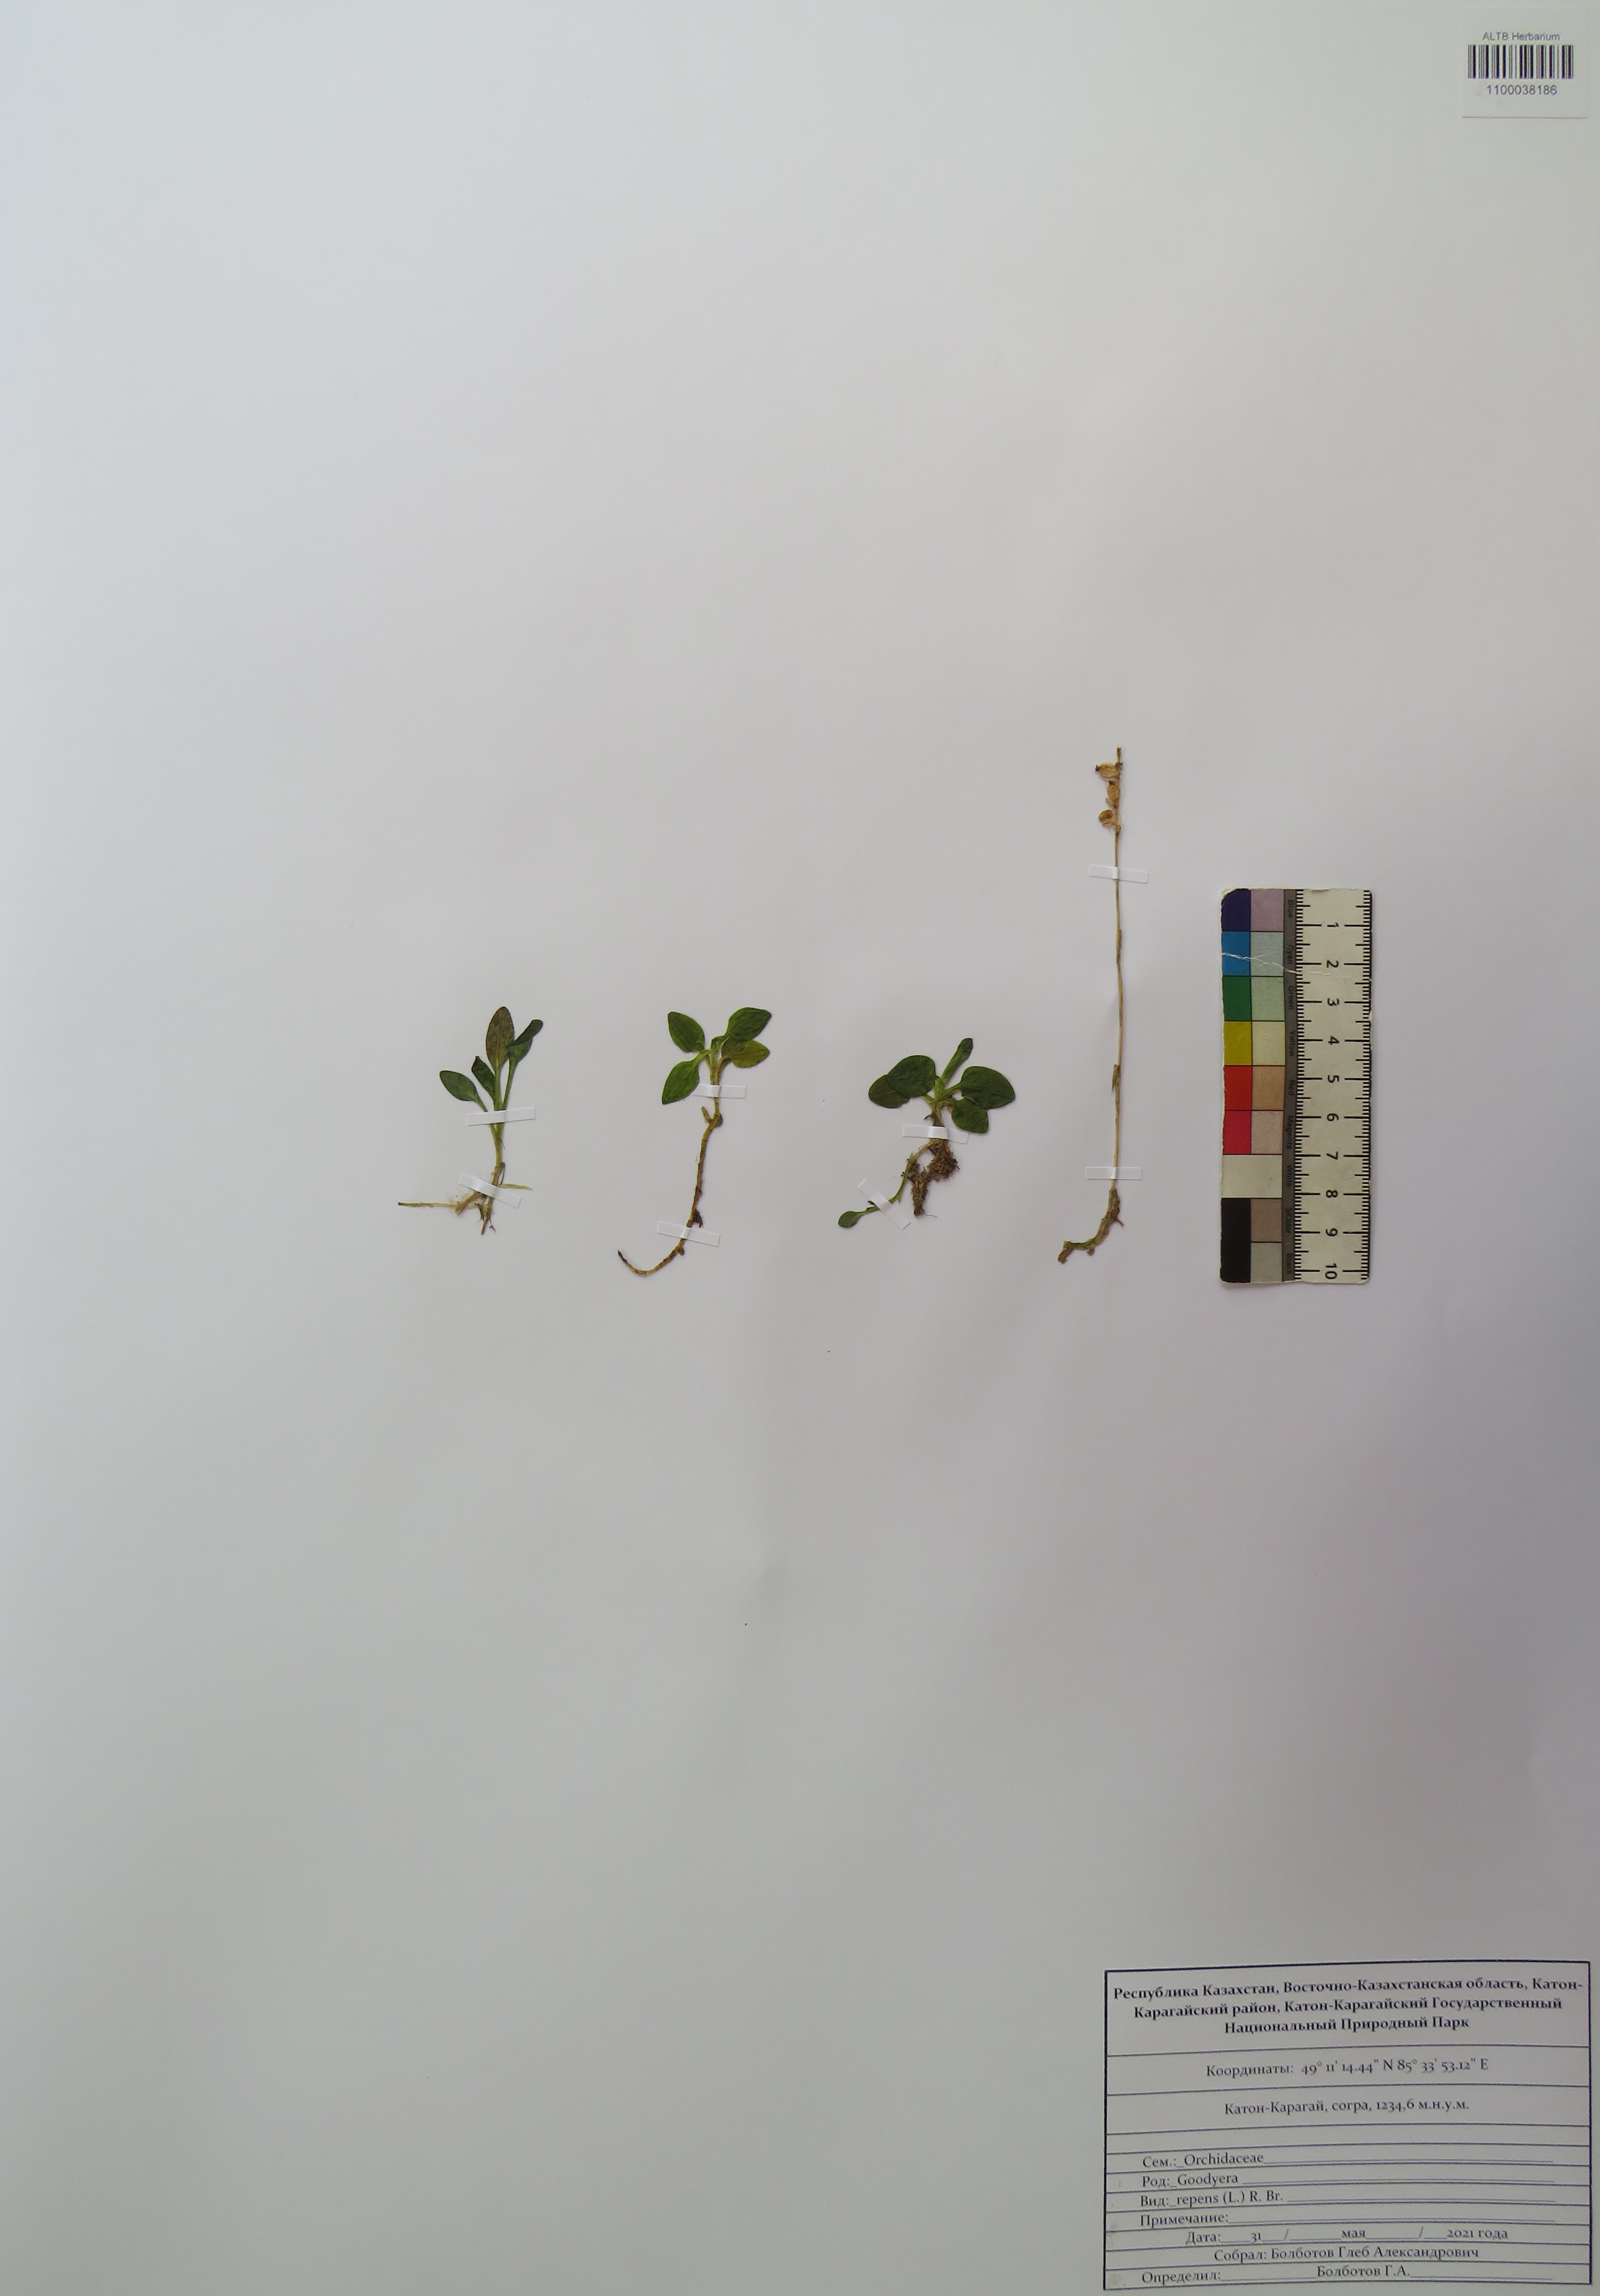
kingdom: Plantae
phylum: Tracheophyta
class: Liliopsida
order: Asparagales
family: Orchidaceae
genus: Goodyera
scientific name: Goodyera repens
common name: Creeping lady's-tresses
